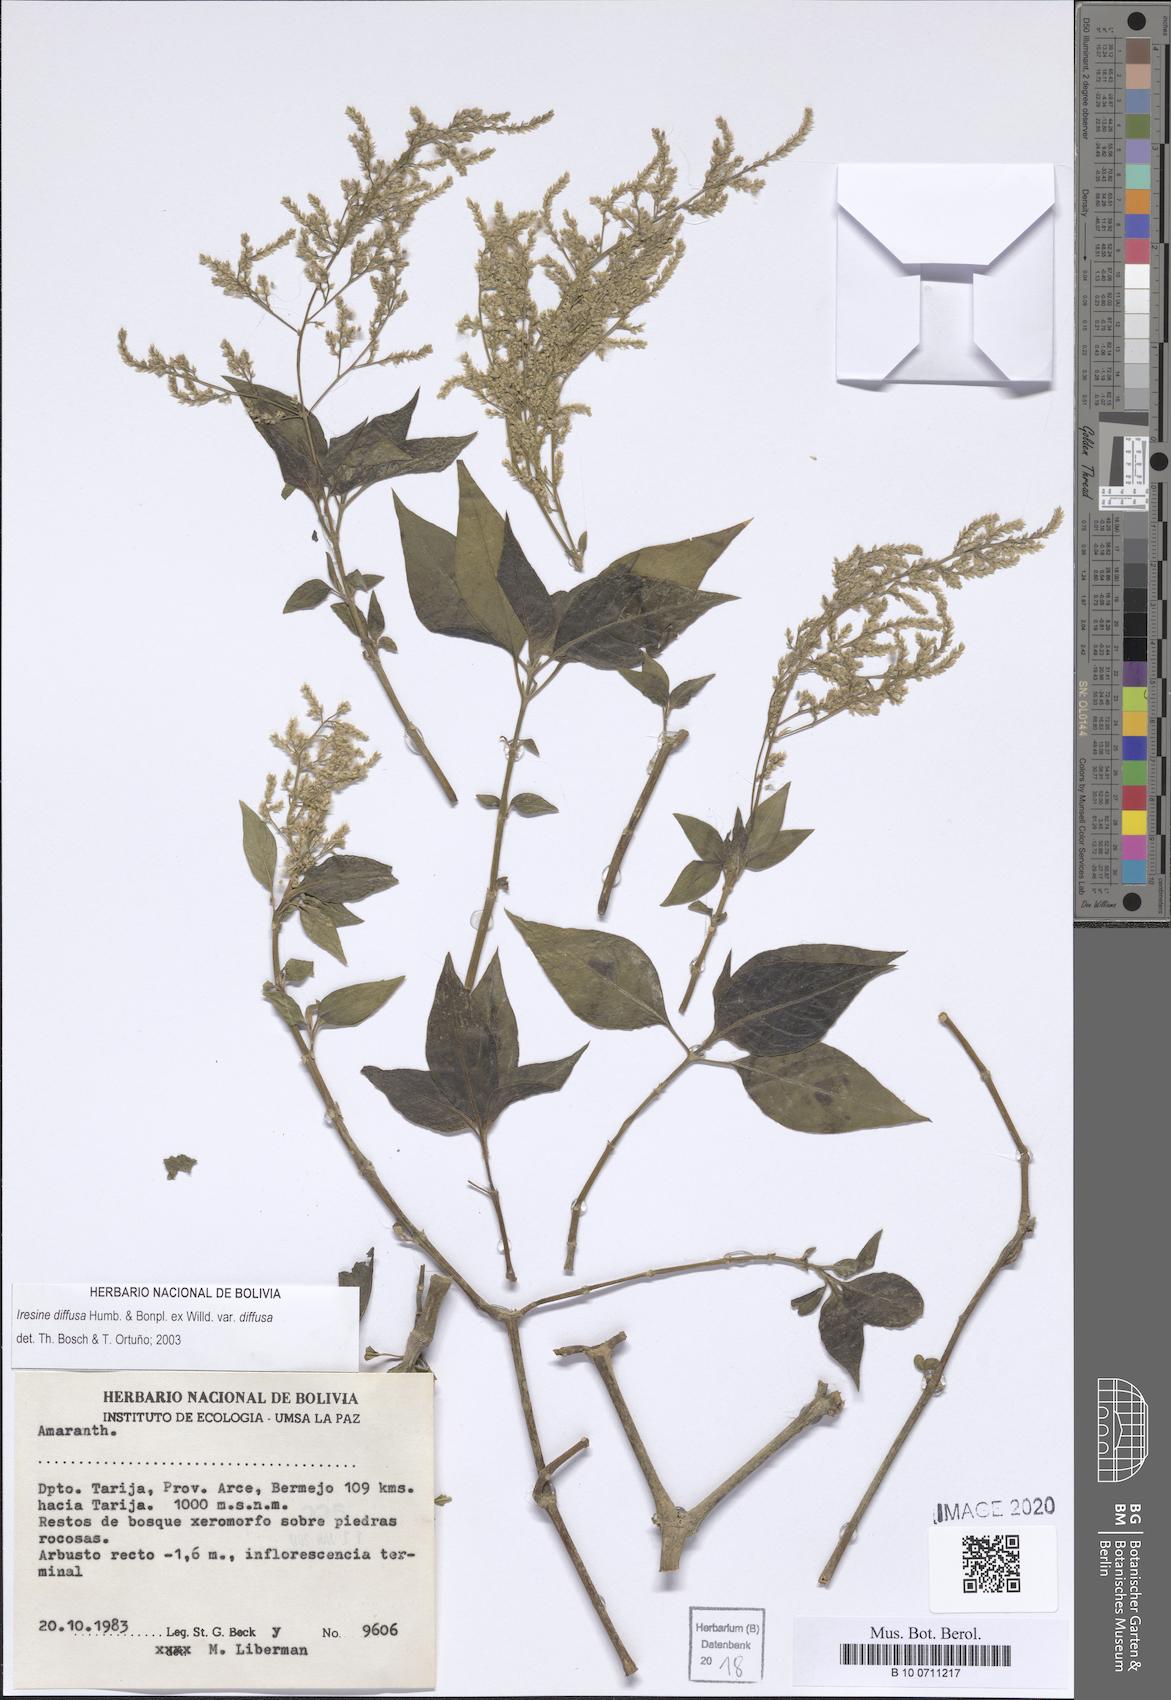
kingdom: Plantae
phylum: Tracheophyta
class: Magnoliopsida
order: Caryophyllales
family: Amaranthaceae
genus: Iresine
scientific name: Iresine diffusa
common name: Juba's-bush
